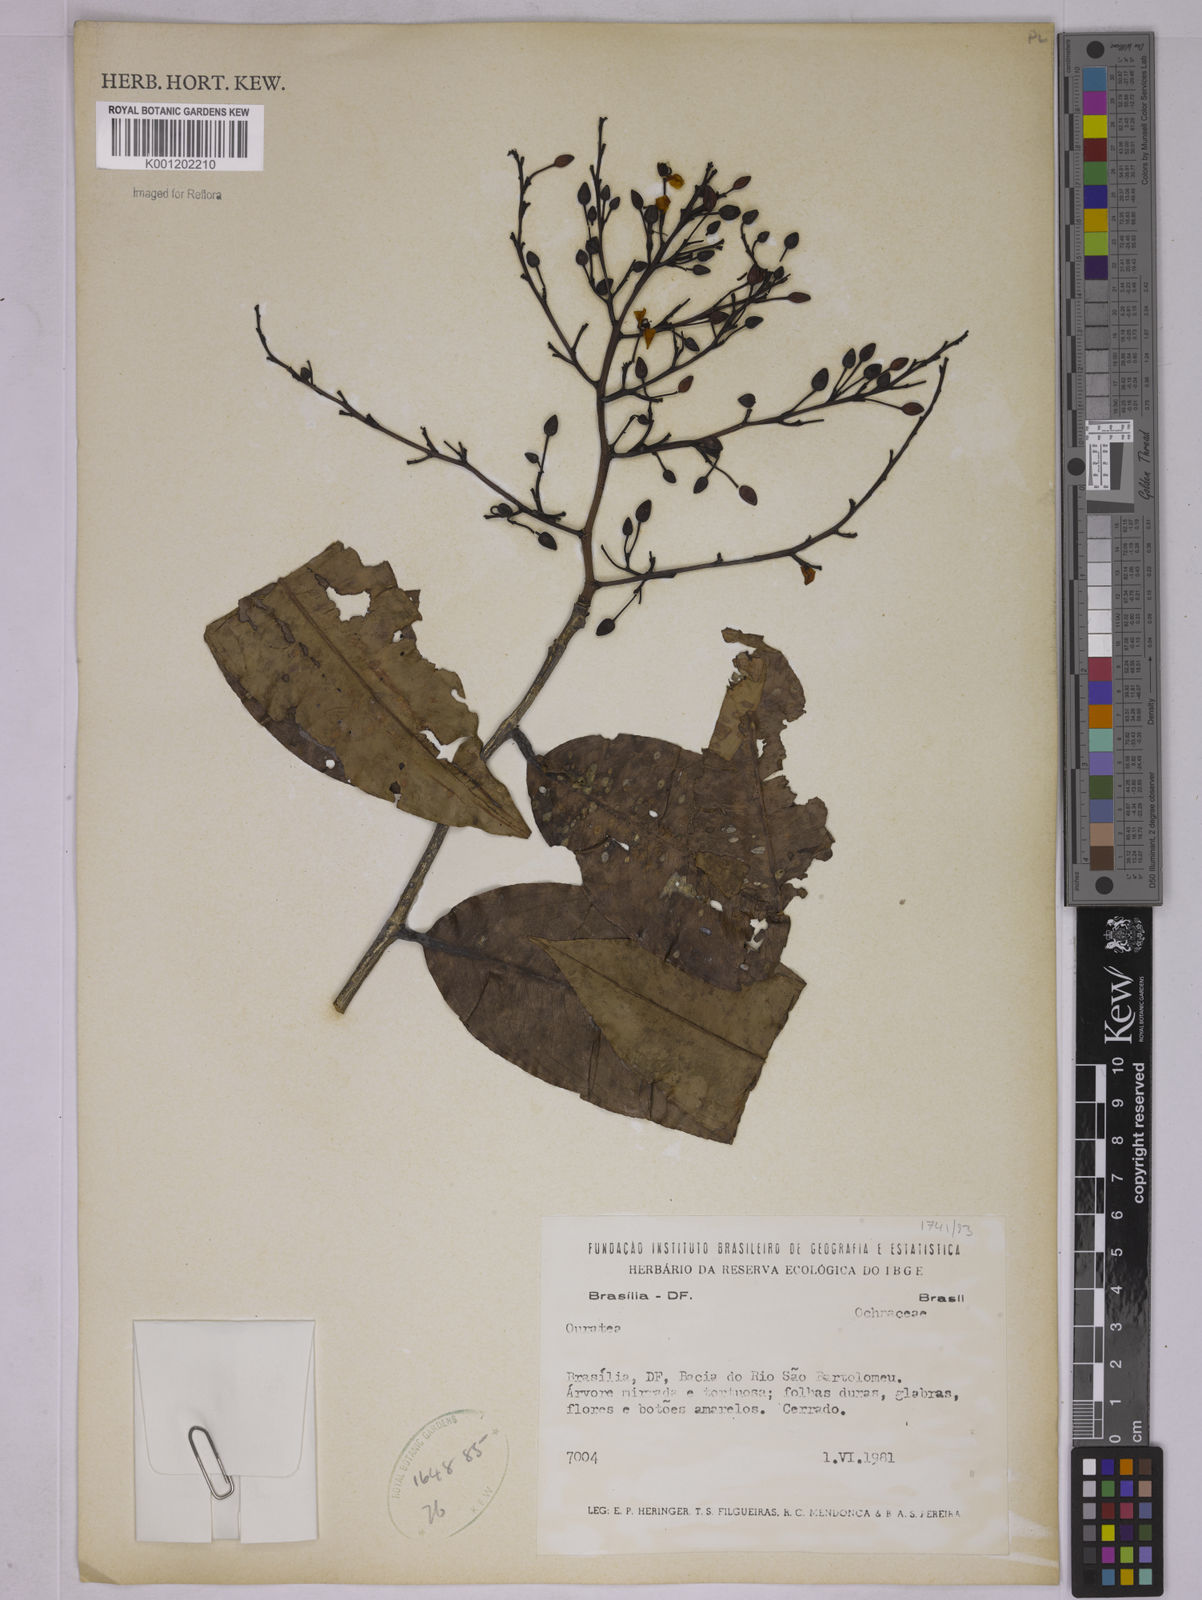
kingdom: Plantae
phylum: Tracheophyta
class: Magnoliopsida
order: Malpighiales
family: Ochnaceae
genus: Ouratea
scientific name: Ouratea
